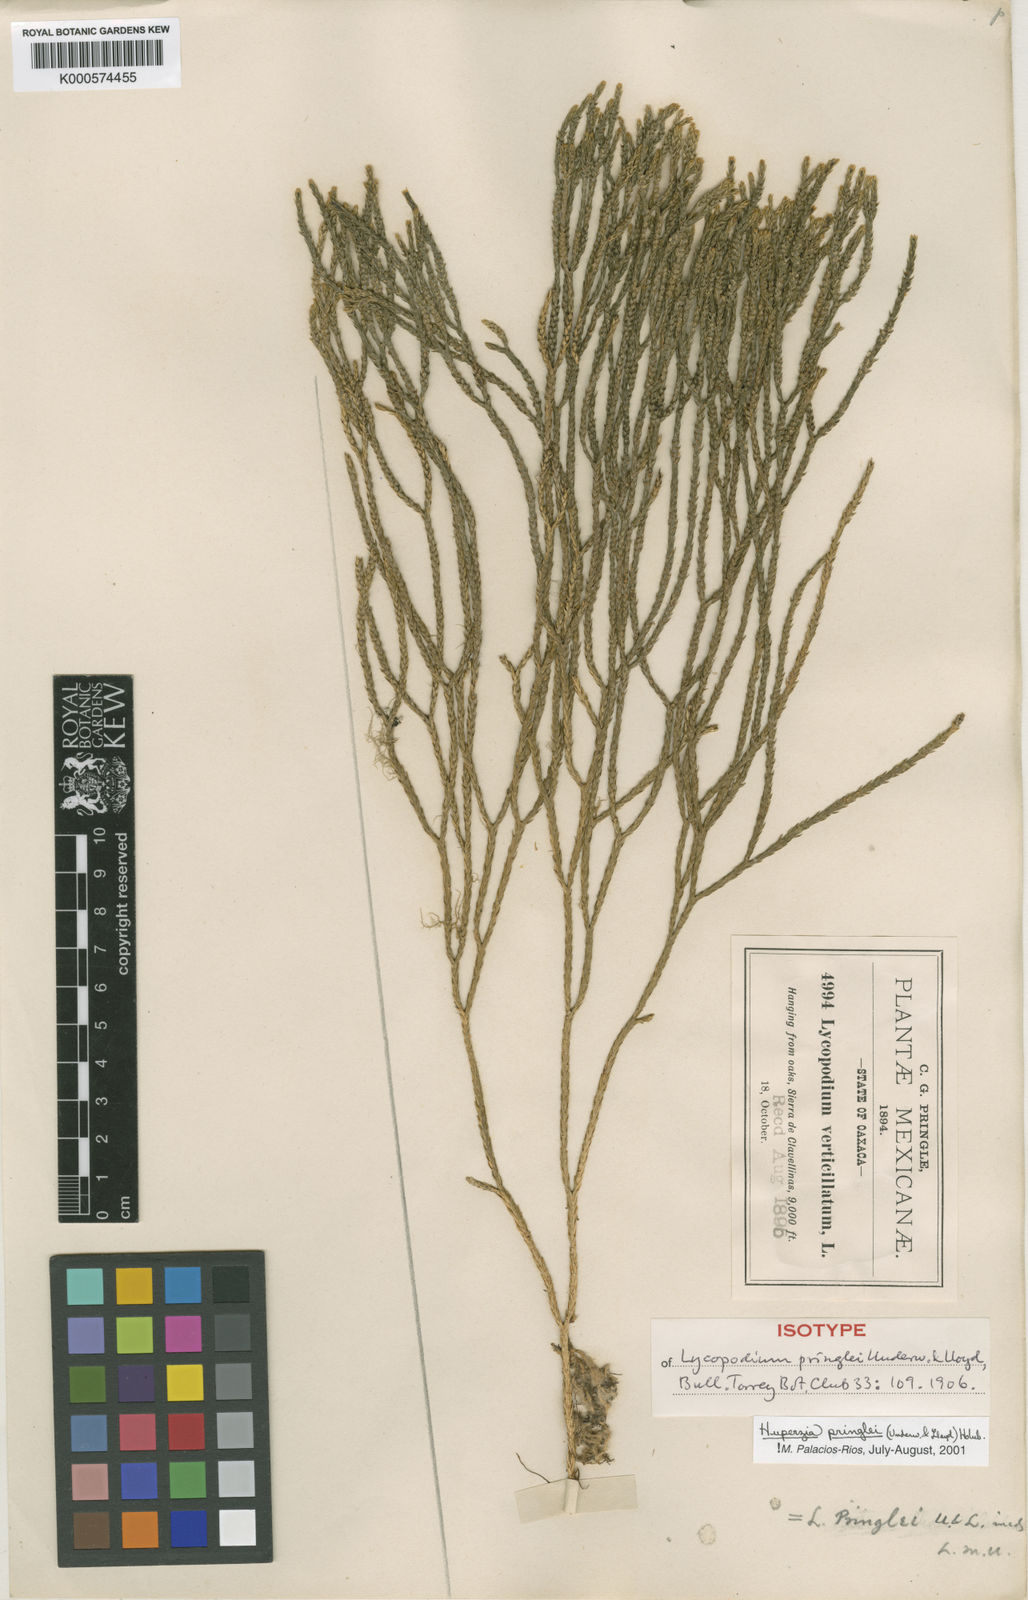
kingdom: Plantae
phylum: Tracheophyta
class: Lycopodiopsida
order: Lycopodiales
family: Lycopodiaceae
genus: Phlegmariurus
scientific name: Phlegmariurus pringlei
